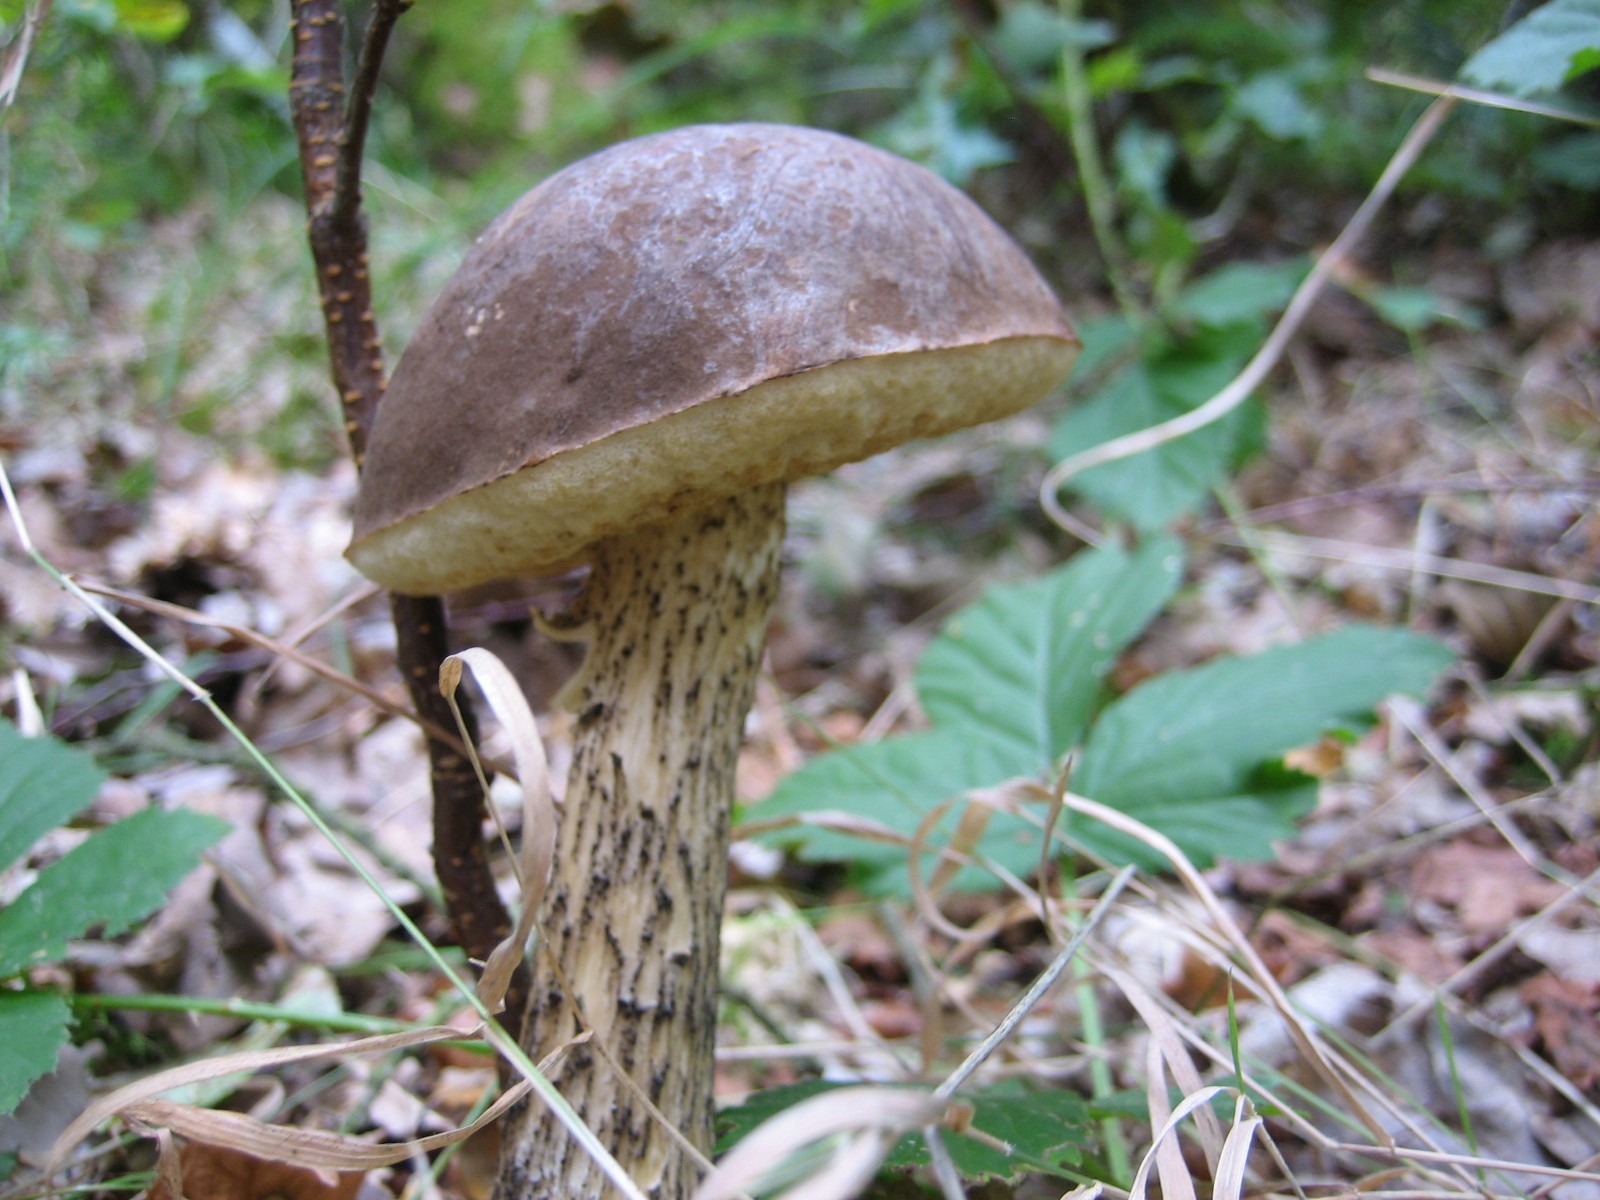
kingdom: Fungi
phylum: Basidiomycota
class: Agaricomycetes
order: Boletales
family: Boletaceae
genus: Leccinum
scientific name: Leccinum scabrum
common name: brun skælrørhat
